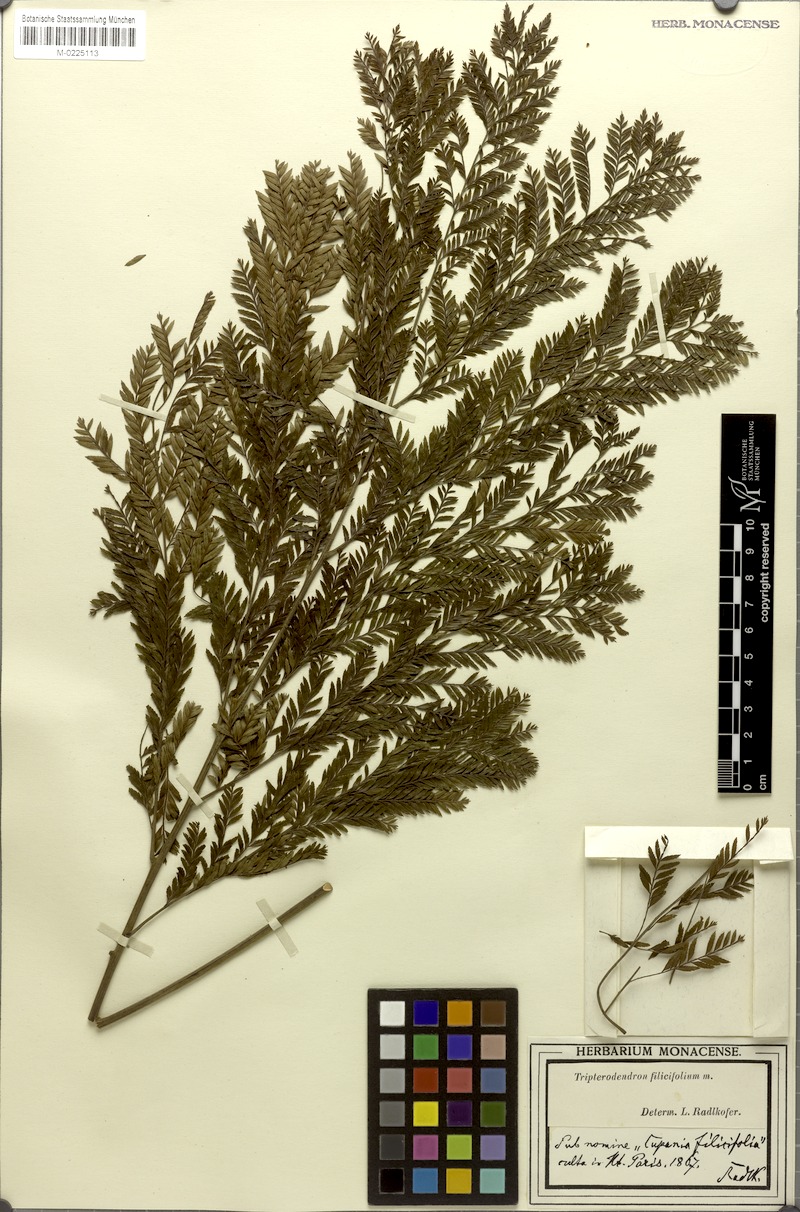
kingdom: Plantae
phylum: Tracheophyta
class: Magnoliopsida
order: Sapindales
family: Sapindaceae
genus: Tripterodendron
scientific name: Tripterodendron filicifolium
